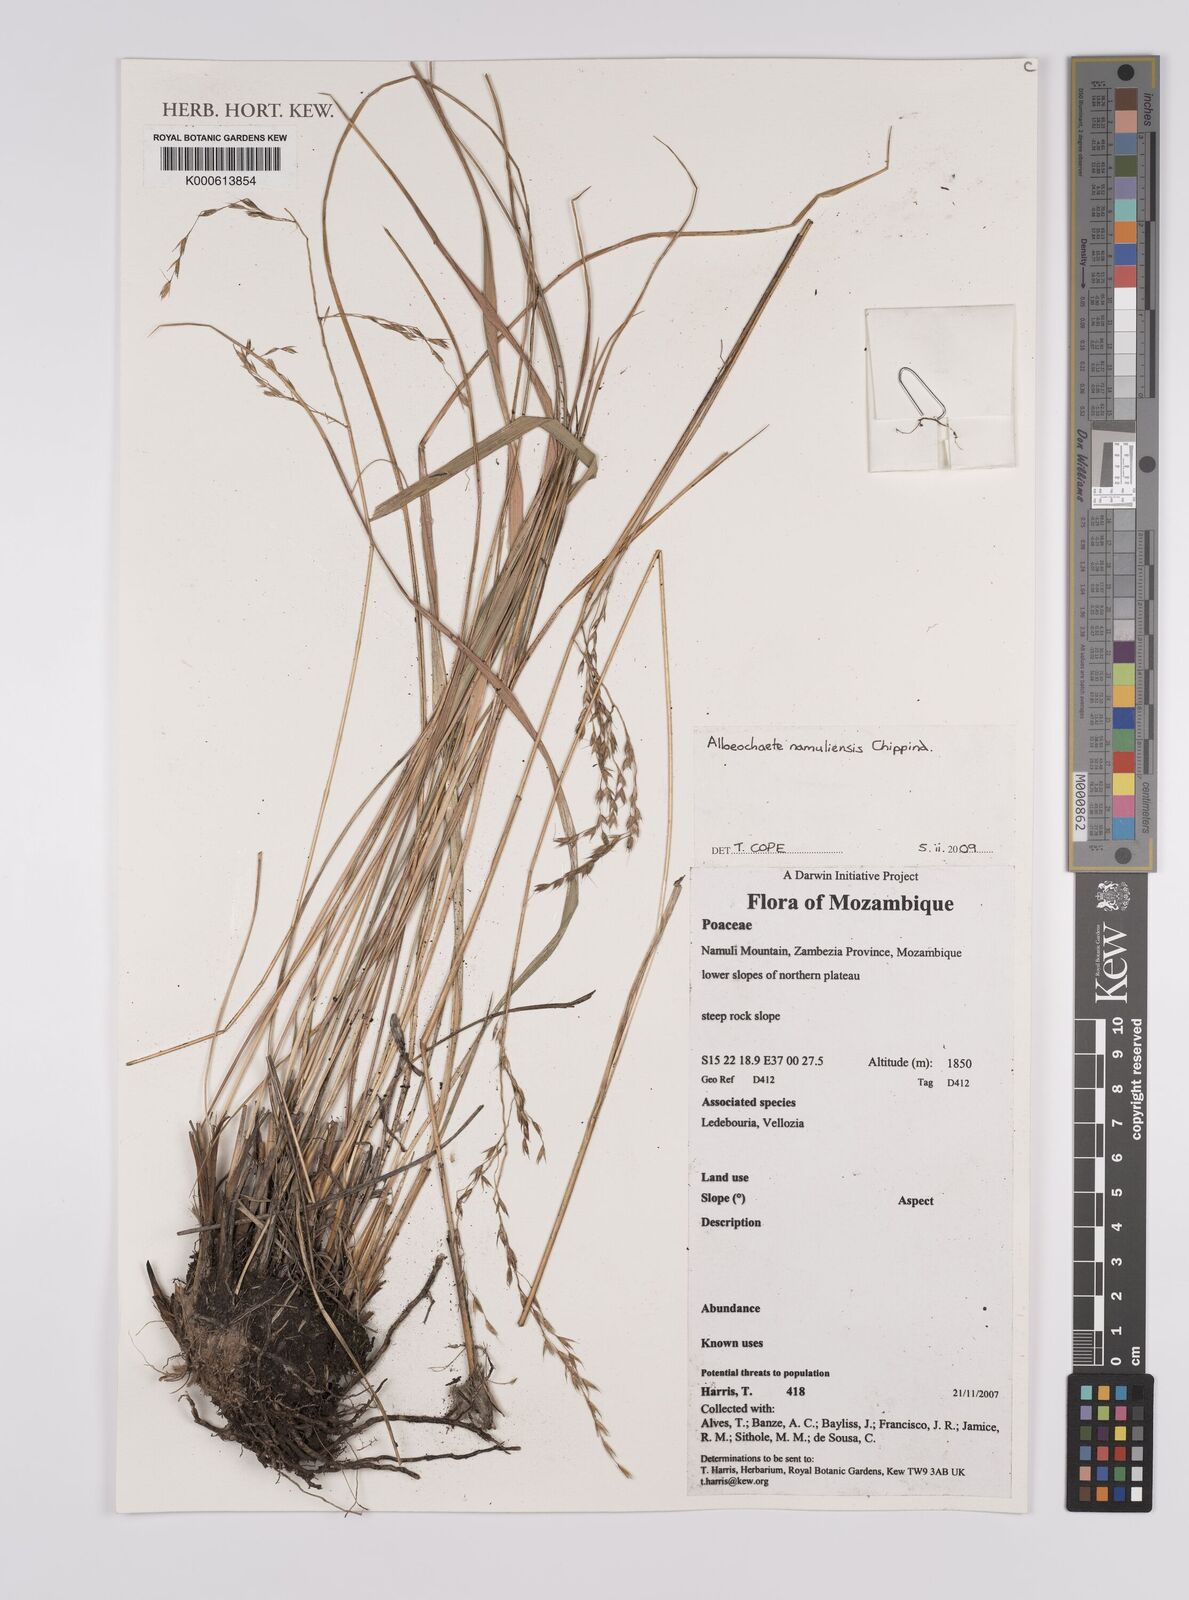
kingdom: Plantae
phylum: Tracheophyta
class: Liliopsida
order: Poales
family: Poaceae
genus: Alloeochaete
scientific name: Alloeochaete namuliensis
